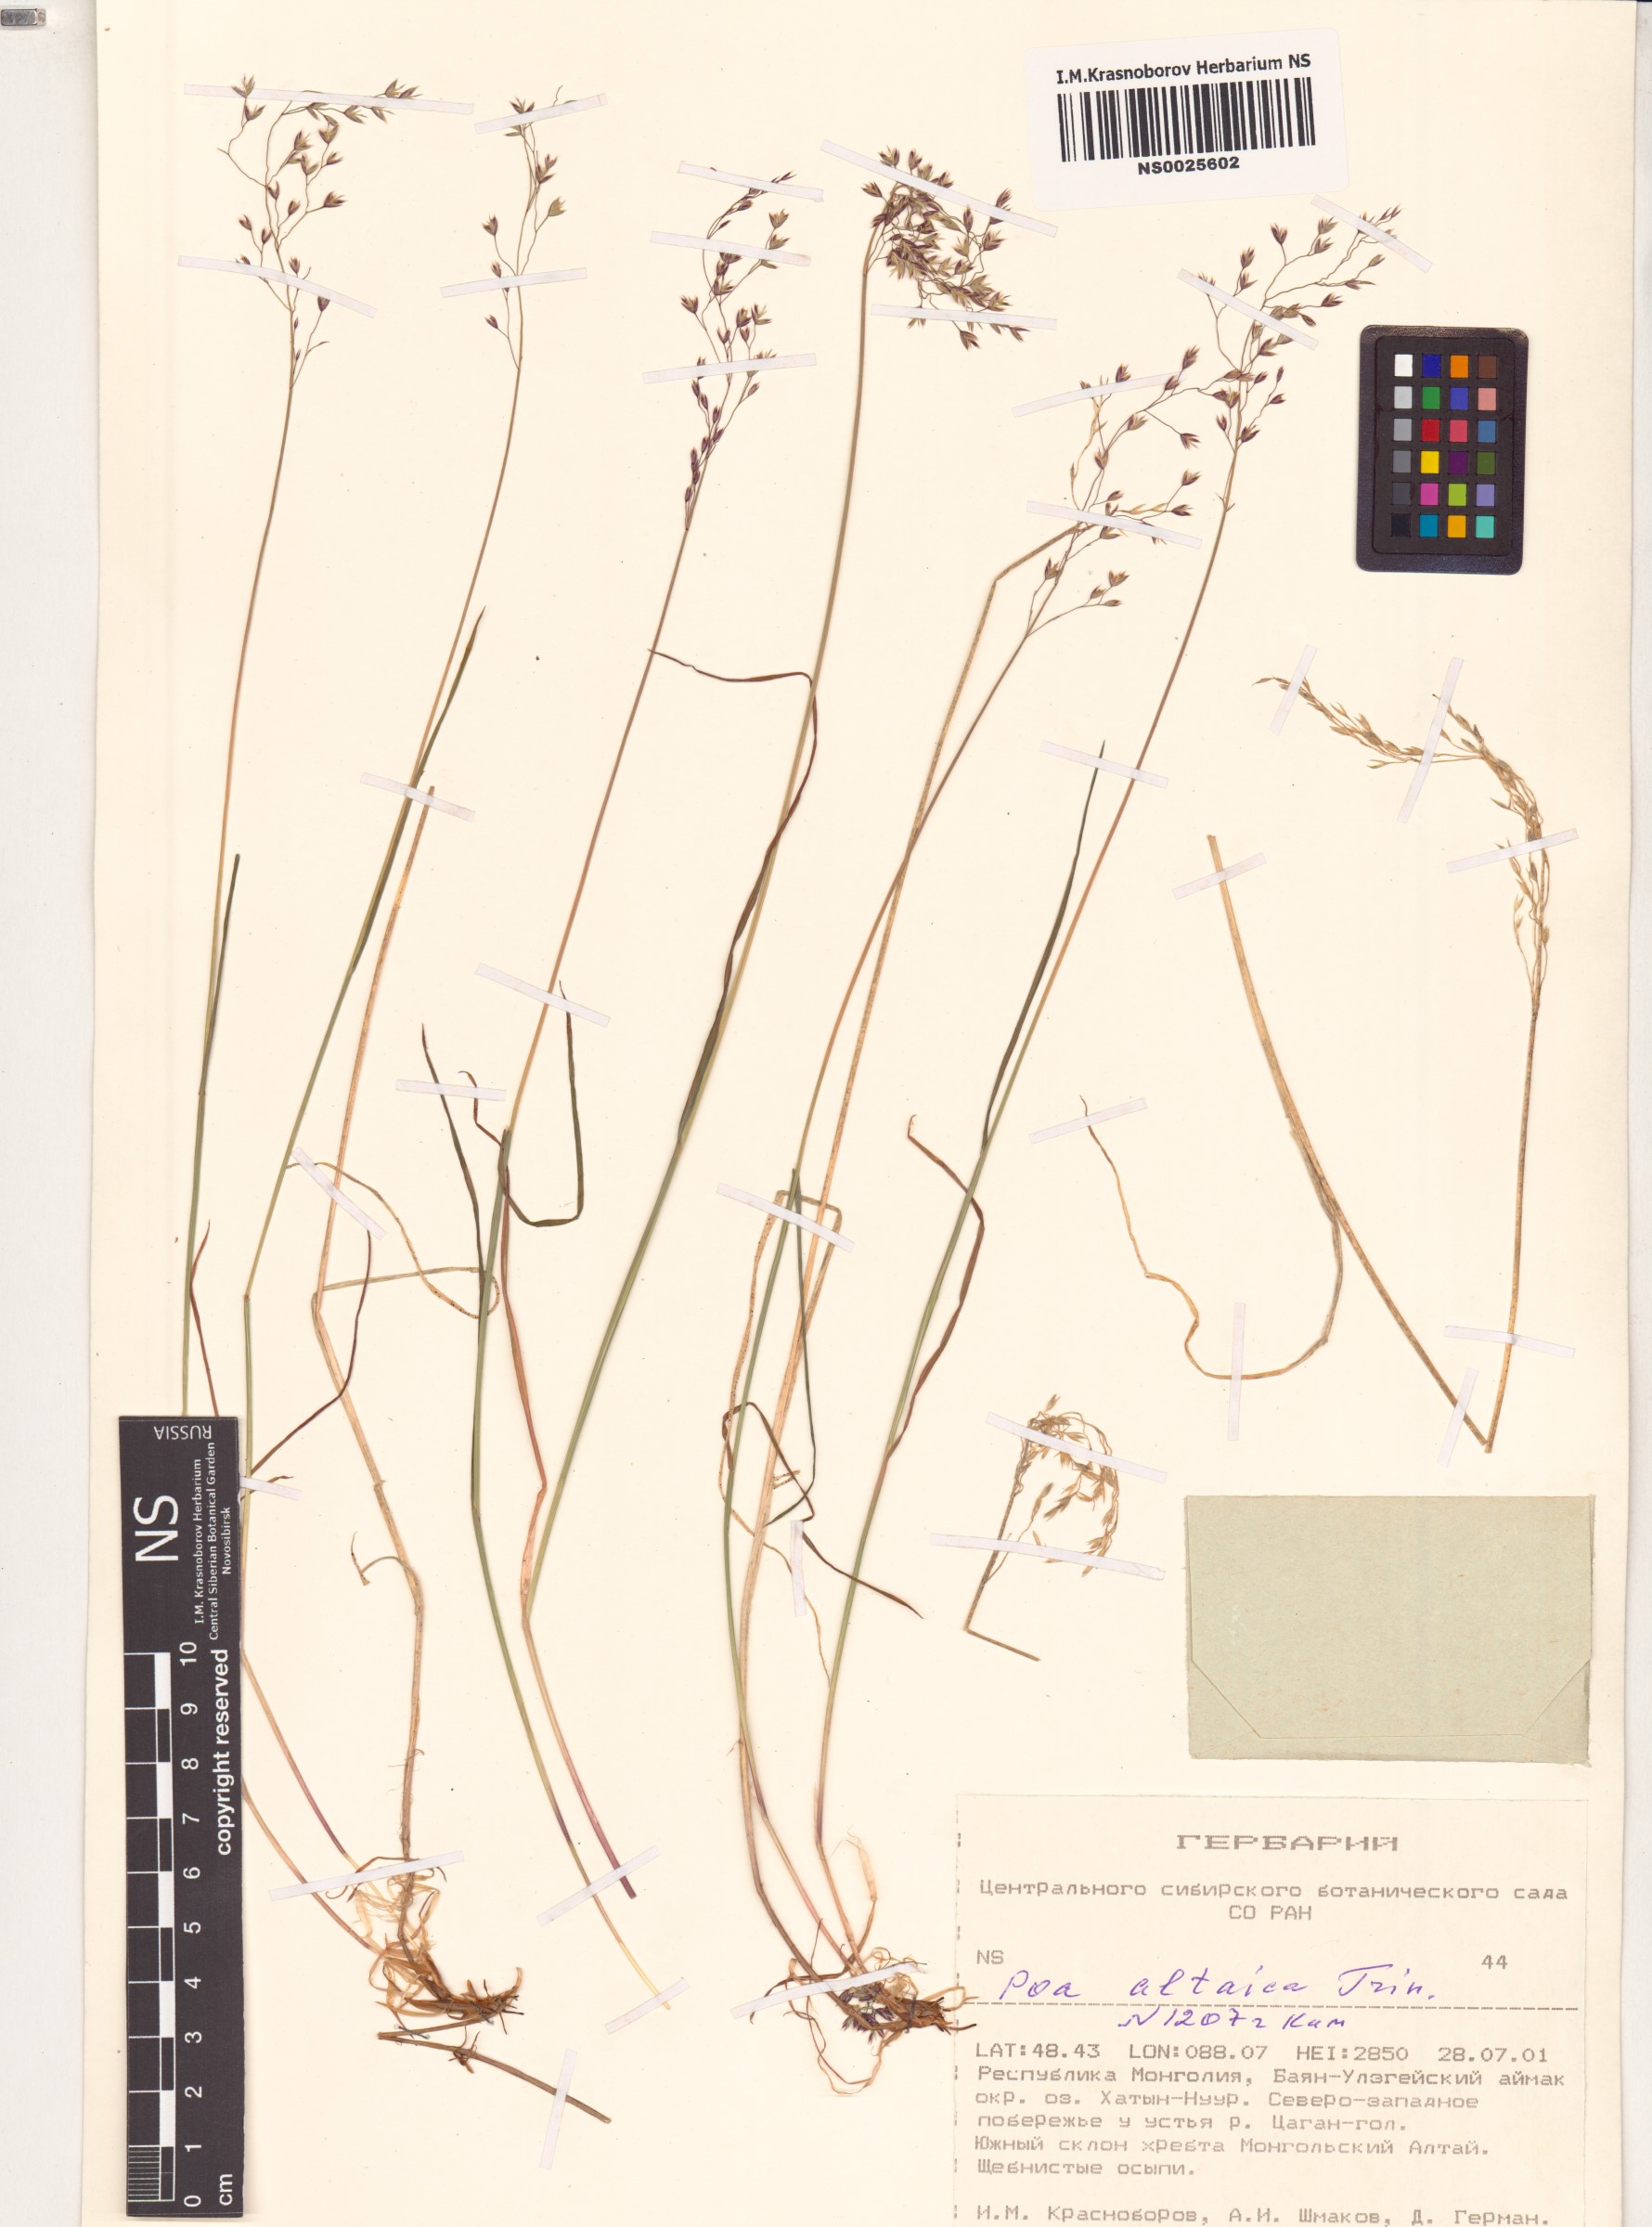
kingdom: Plantae
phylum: Tracheophyta
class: Liliopsida
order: Poales
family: Poaceae
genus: Poa
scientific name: Poa glauca
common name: Glaucous bluegrass
